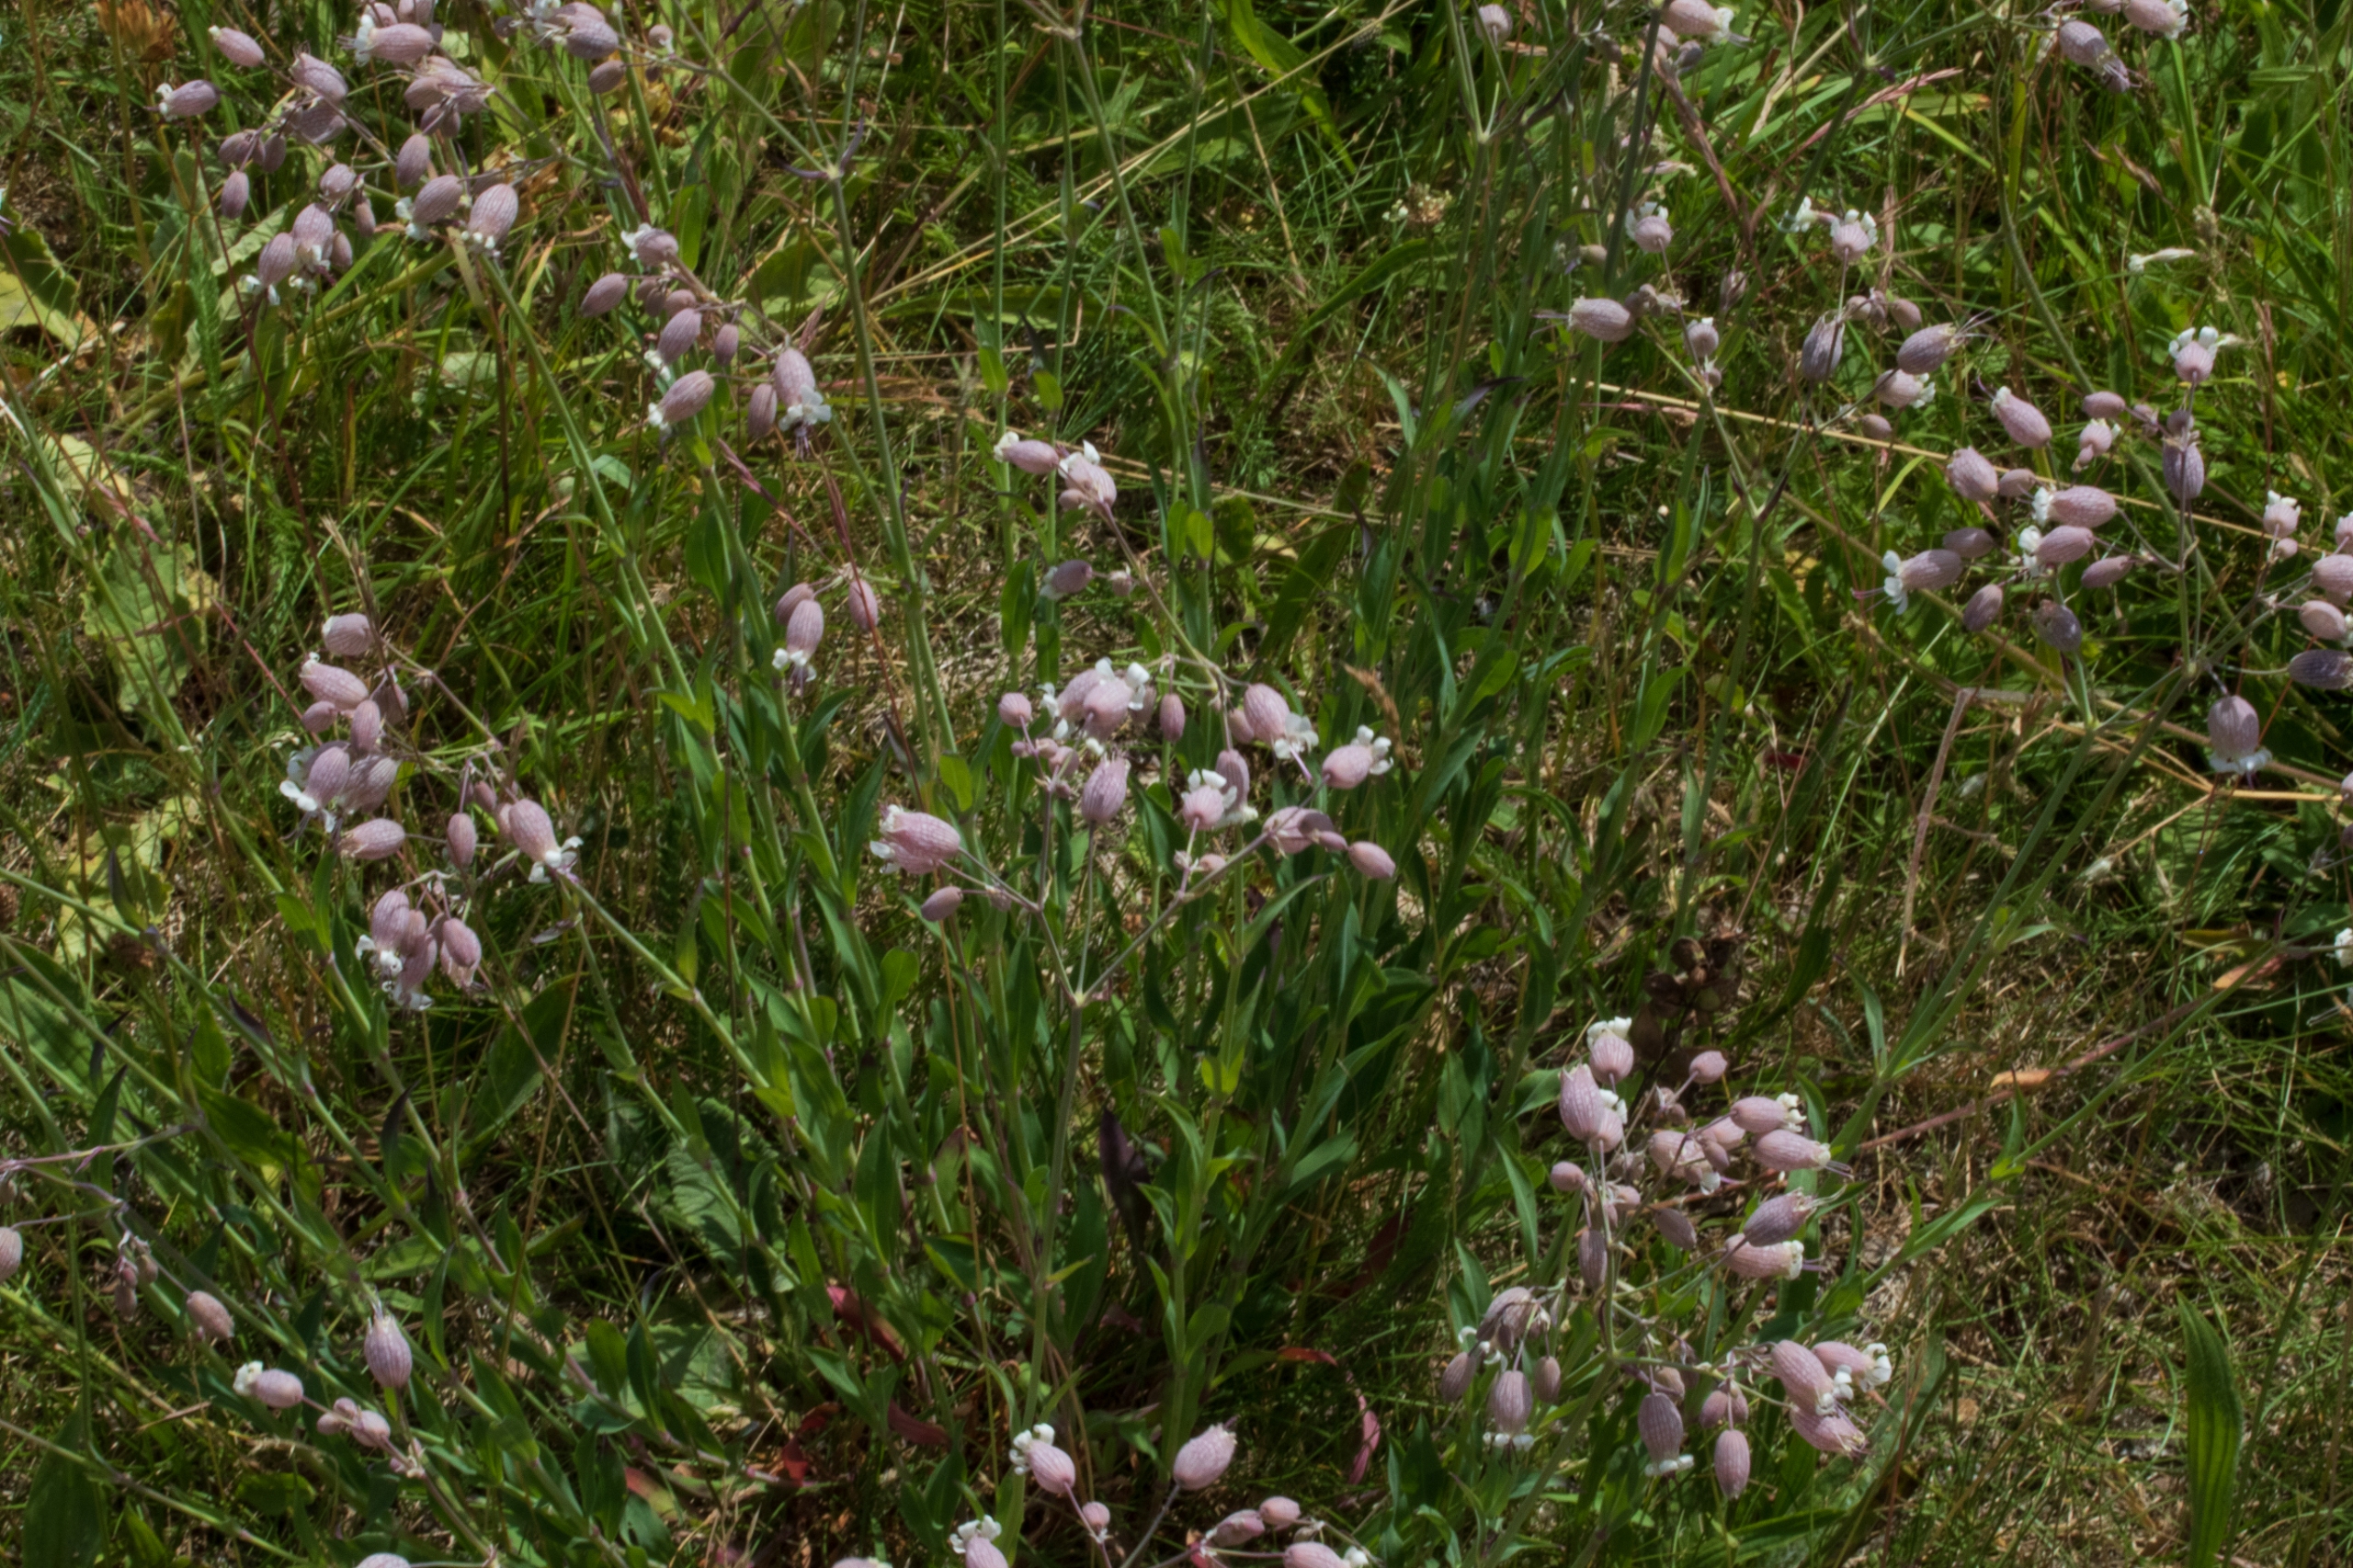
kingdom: Plantae
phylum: Tracheophyta
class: Magnoliopsida
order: Caryophyllales
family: Caryophyllaceae
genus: Silene
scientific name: Silene vulgaris
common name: Blæresmælde
